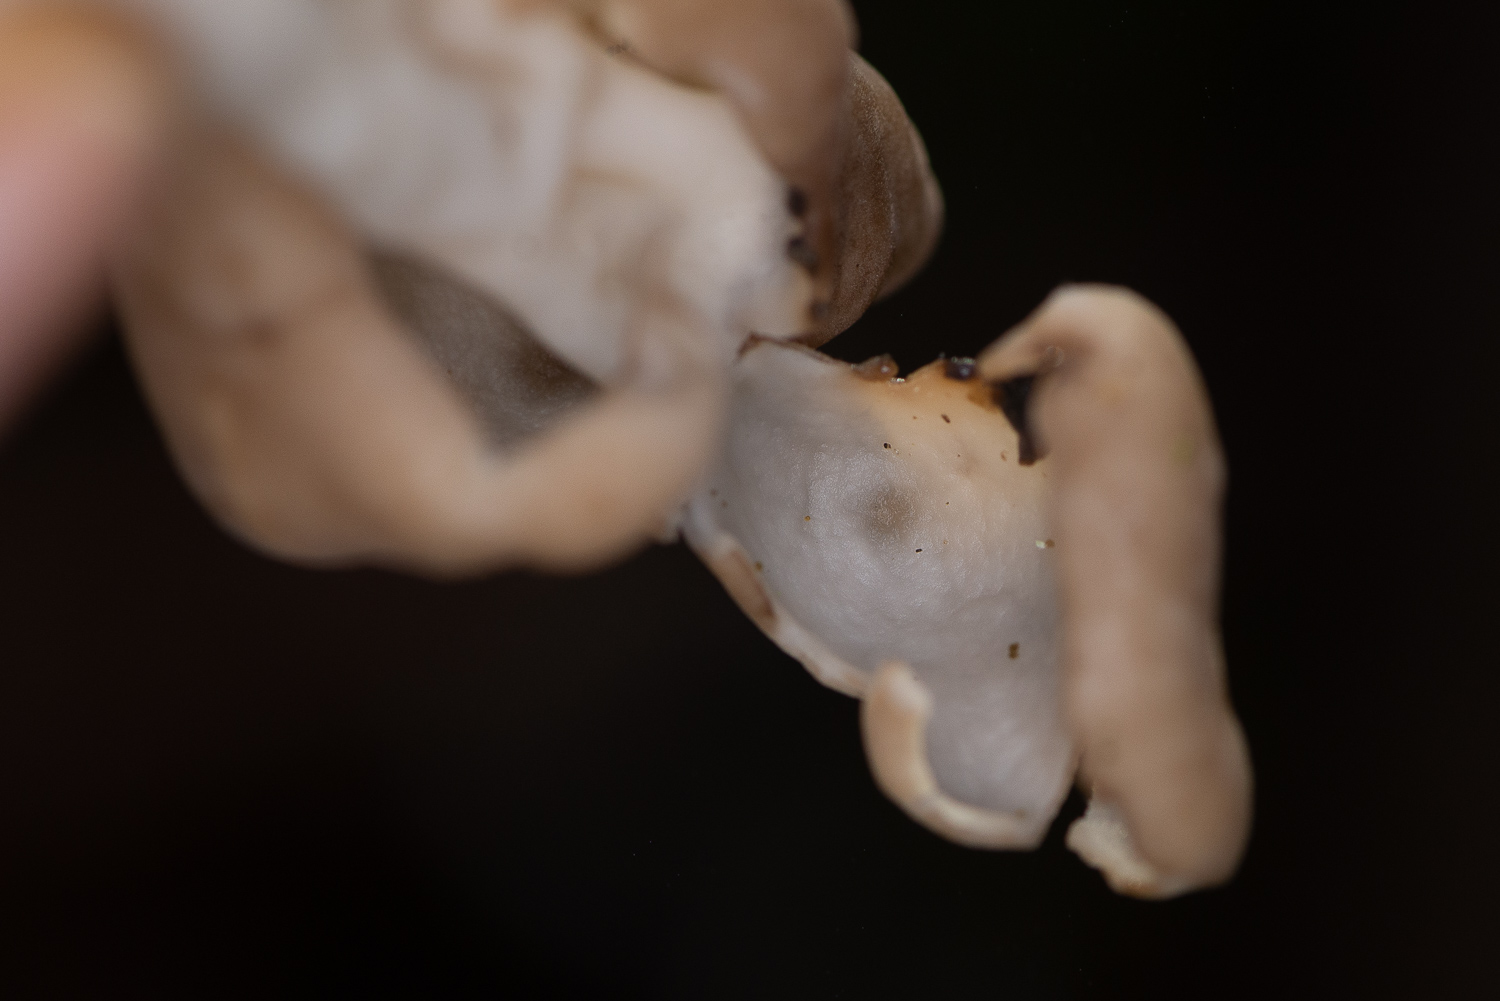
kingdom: Fungi
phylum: Ascomycota
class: Pezizomycetes
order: Pezizales
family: Helvellaceae
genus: Helvella
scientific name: Helvella elastica
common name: elastik-foldhat
